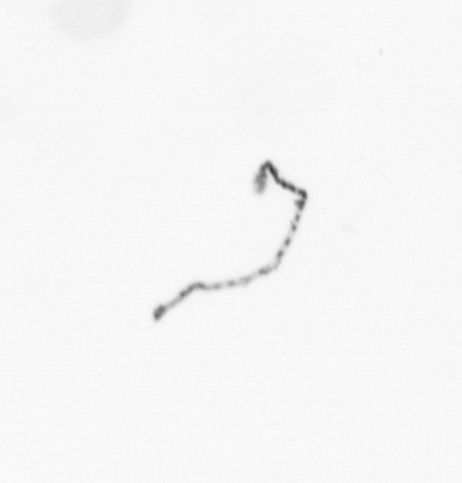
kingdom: Chromista
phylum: Ochrophyta
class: Bacillariophyceae
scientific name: Bacillariophyceae
